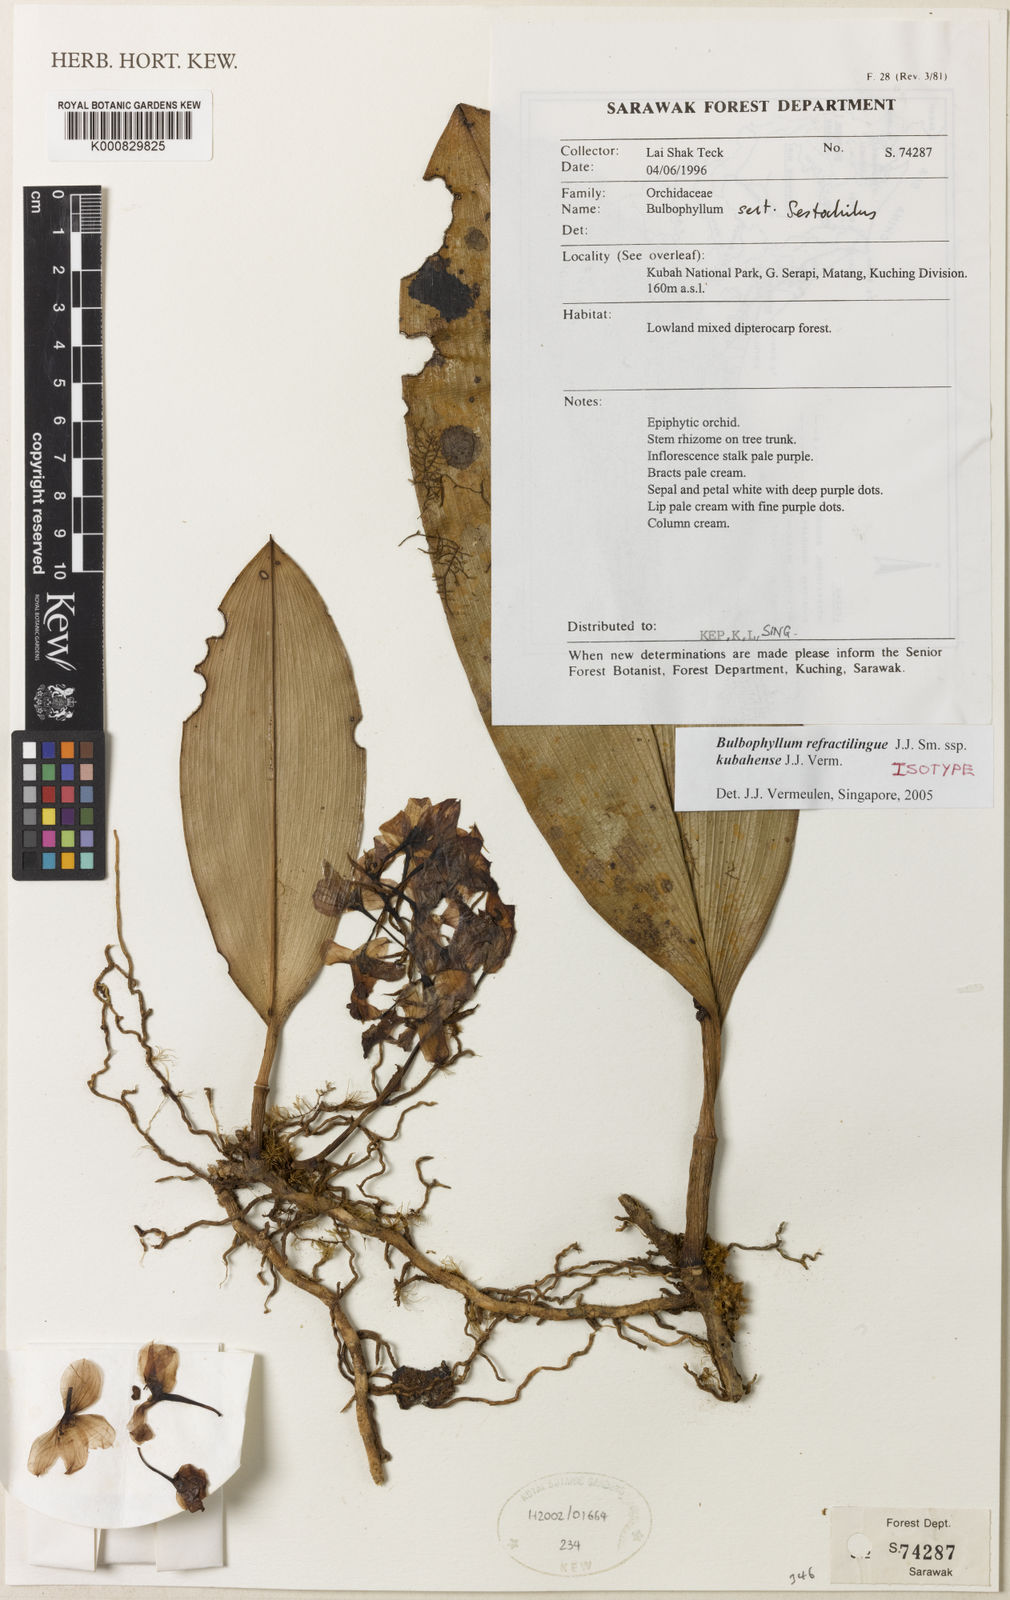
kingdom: Plantae
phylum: Tracheophyta
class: Liliopsida
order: Asparagales
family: Orchidaceae
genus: Bulbophyllum
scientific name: Bulbophyllum refractilingue
